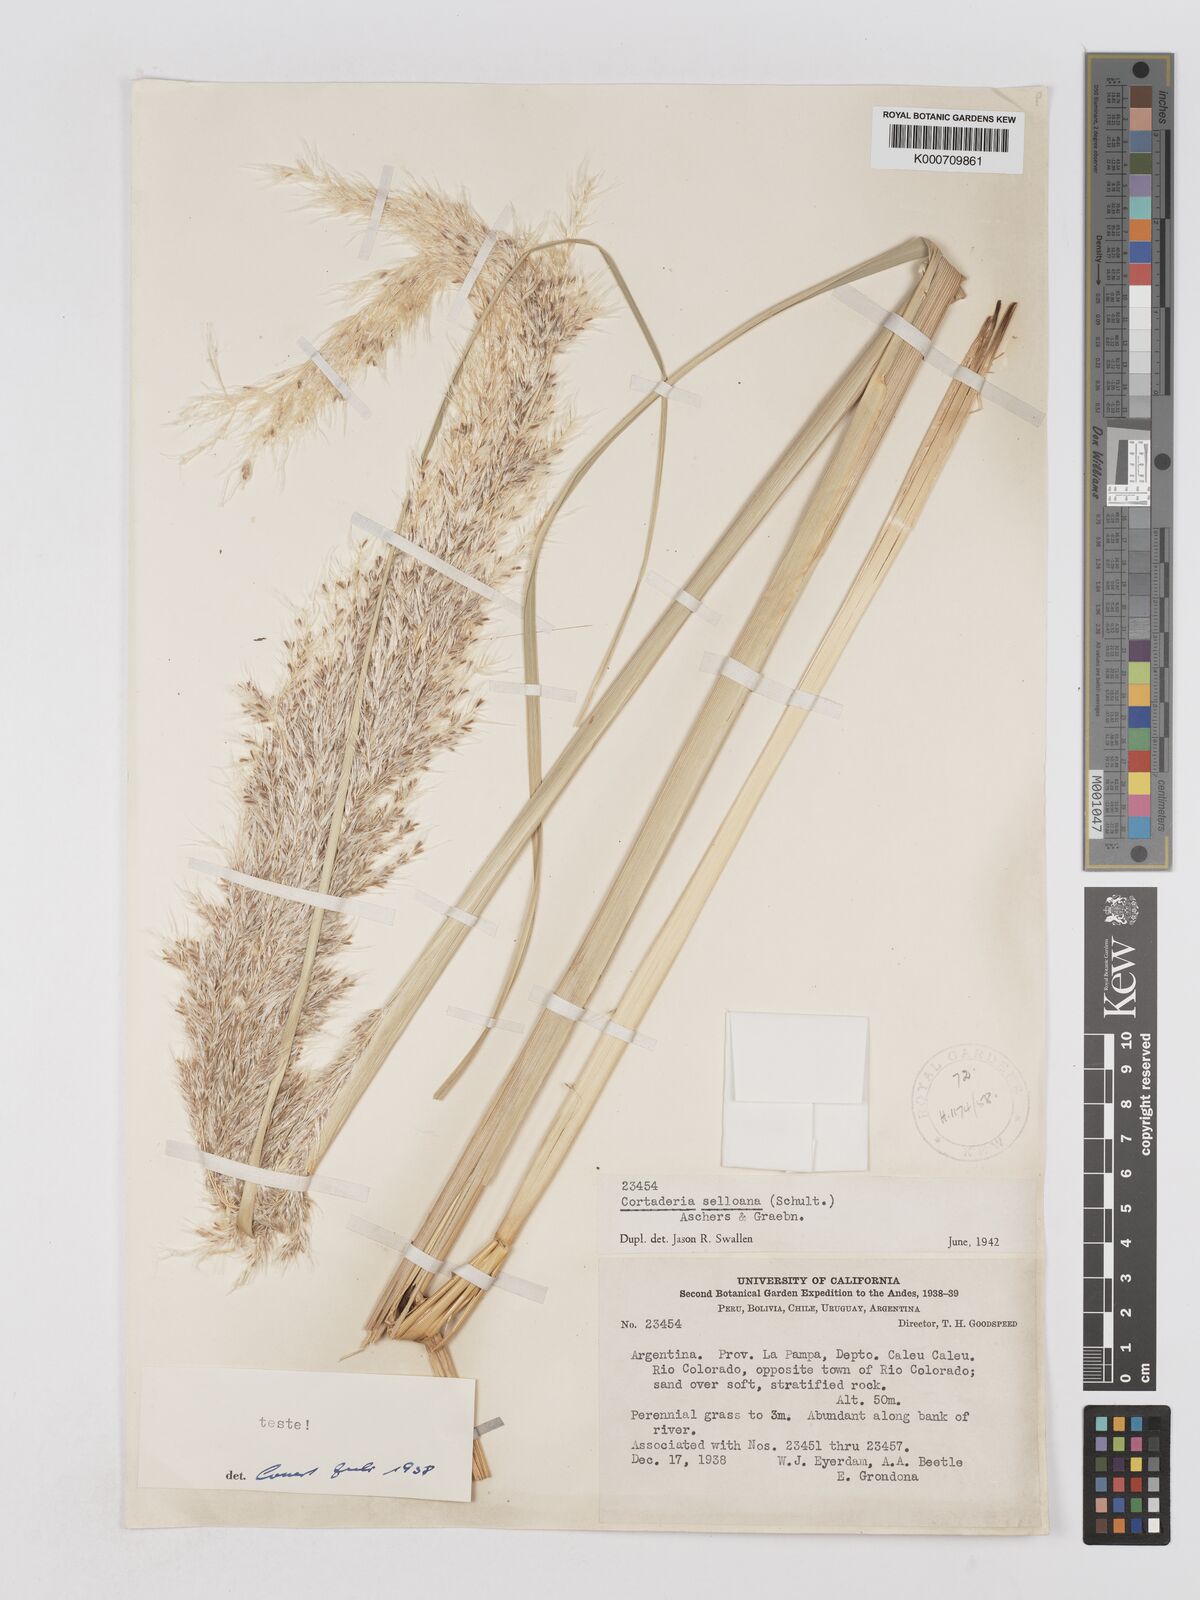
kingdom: Plantae
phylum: Tracheophyta
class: Liliopsida
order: Poales
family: Poaceae
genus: Cortaderia
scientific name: Cortaderia selloana
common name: Uruguayan pampas grass
